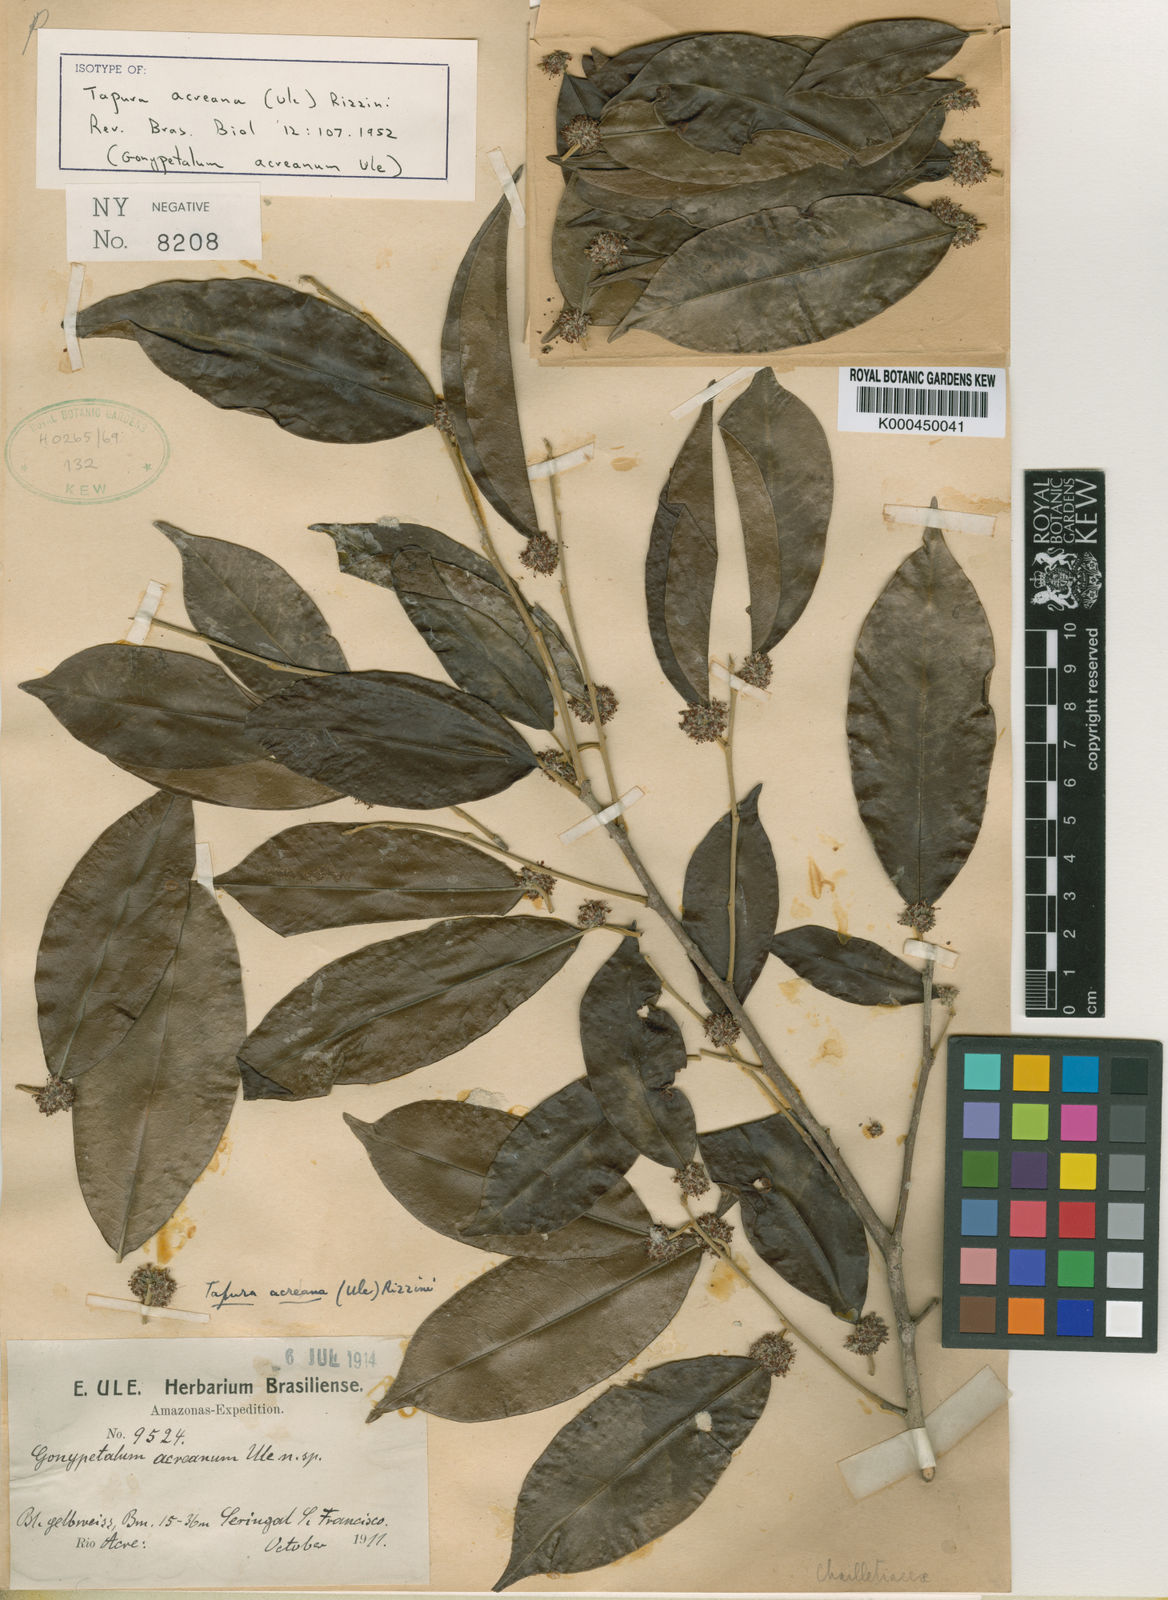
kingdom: Plantae
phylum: Tracheophyta
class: Magnoliopsida
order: Malpighiales
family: Dichapetalaceae
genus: Tapura
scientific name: Tapura acreana
